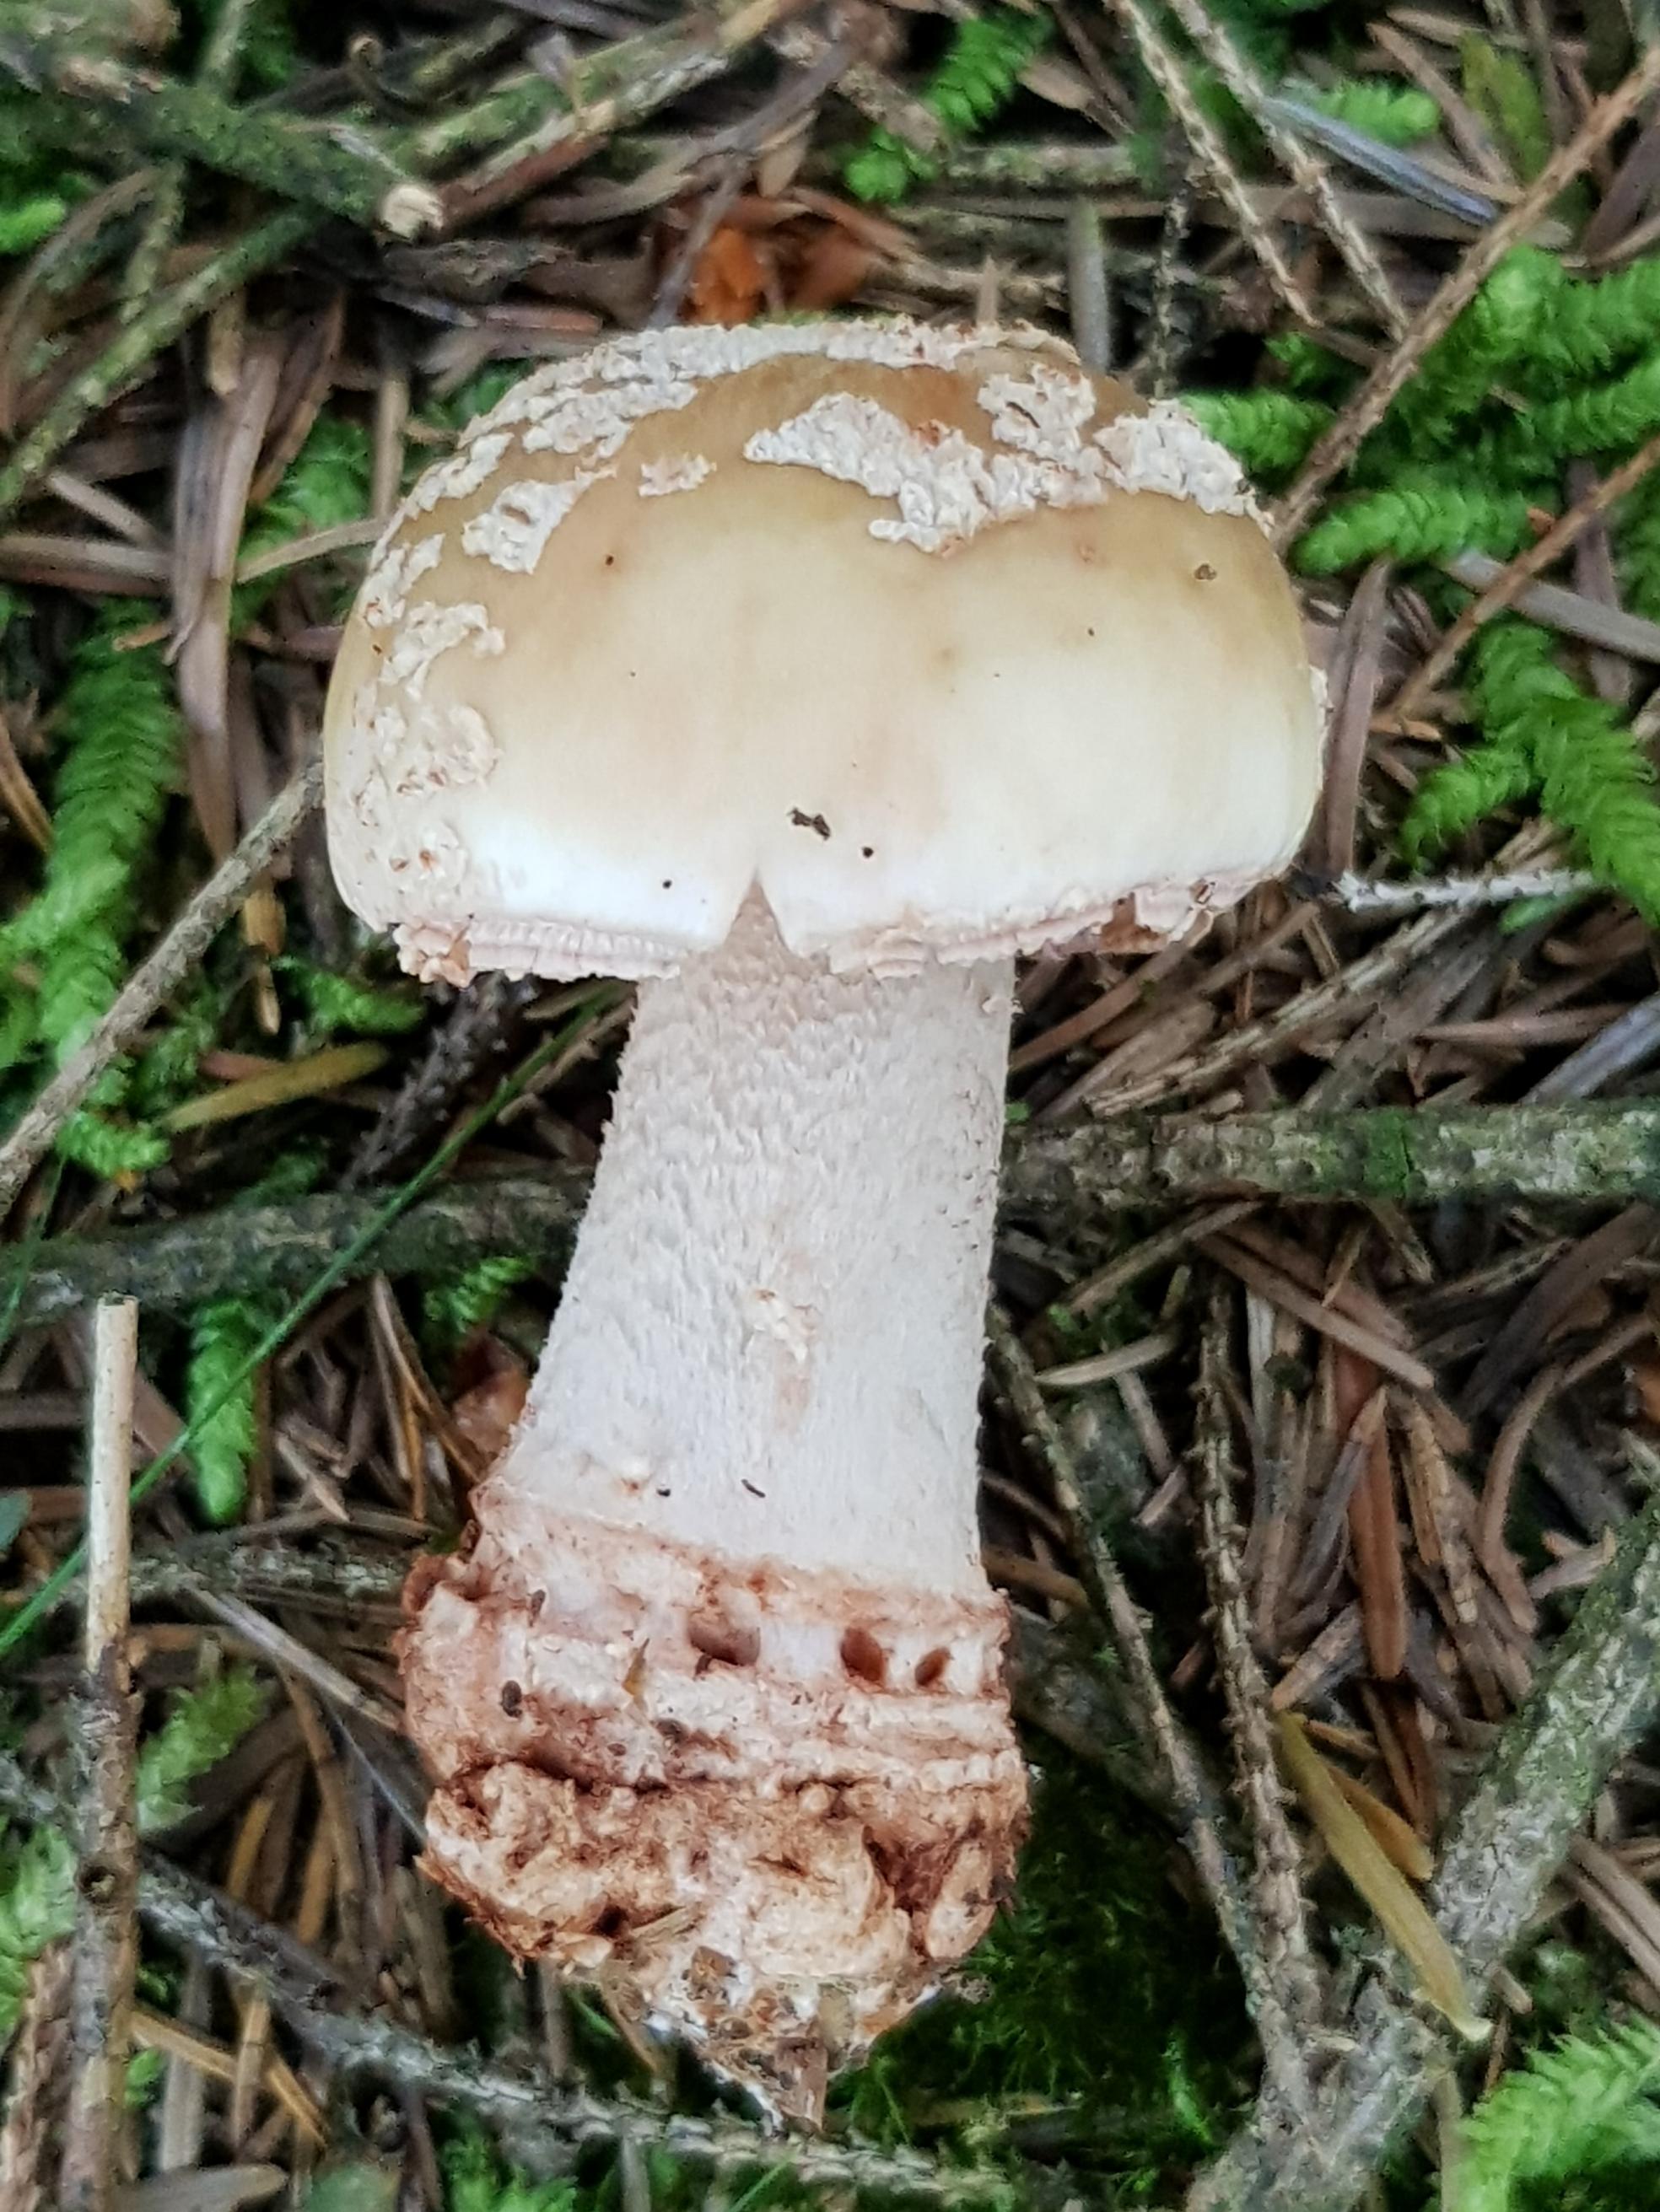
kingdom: Fungi
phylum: Basidiomycota
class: Agaricomycetes
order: Agaricales
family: Amanitaceae
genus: Amanita
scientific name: Amanita rubescens
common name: rødmende fluesvamp
